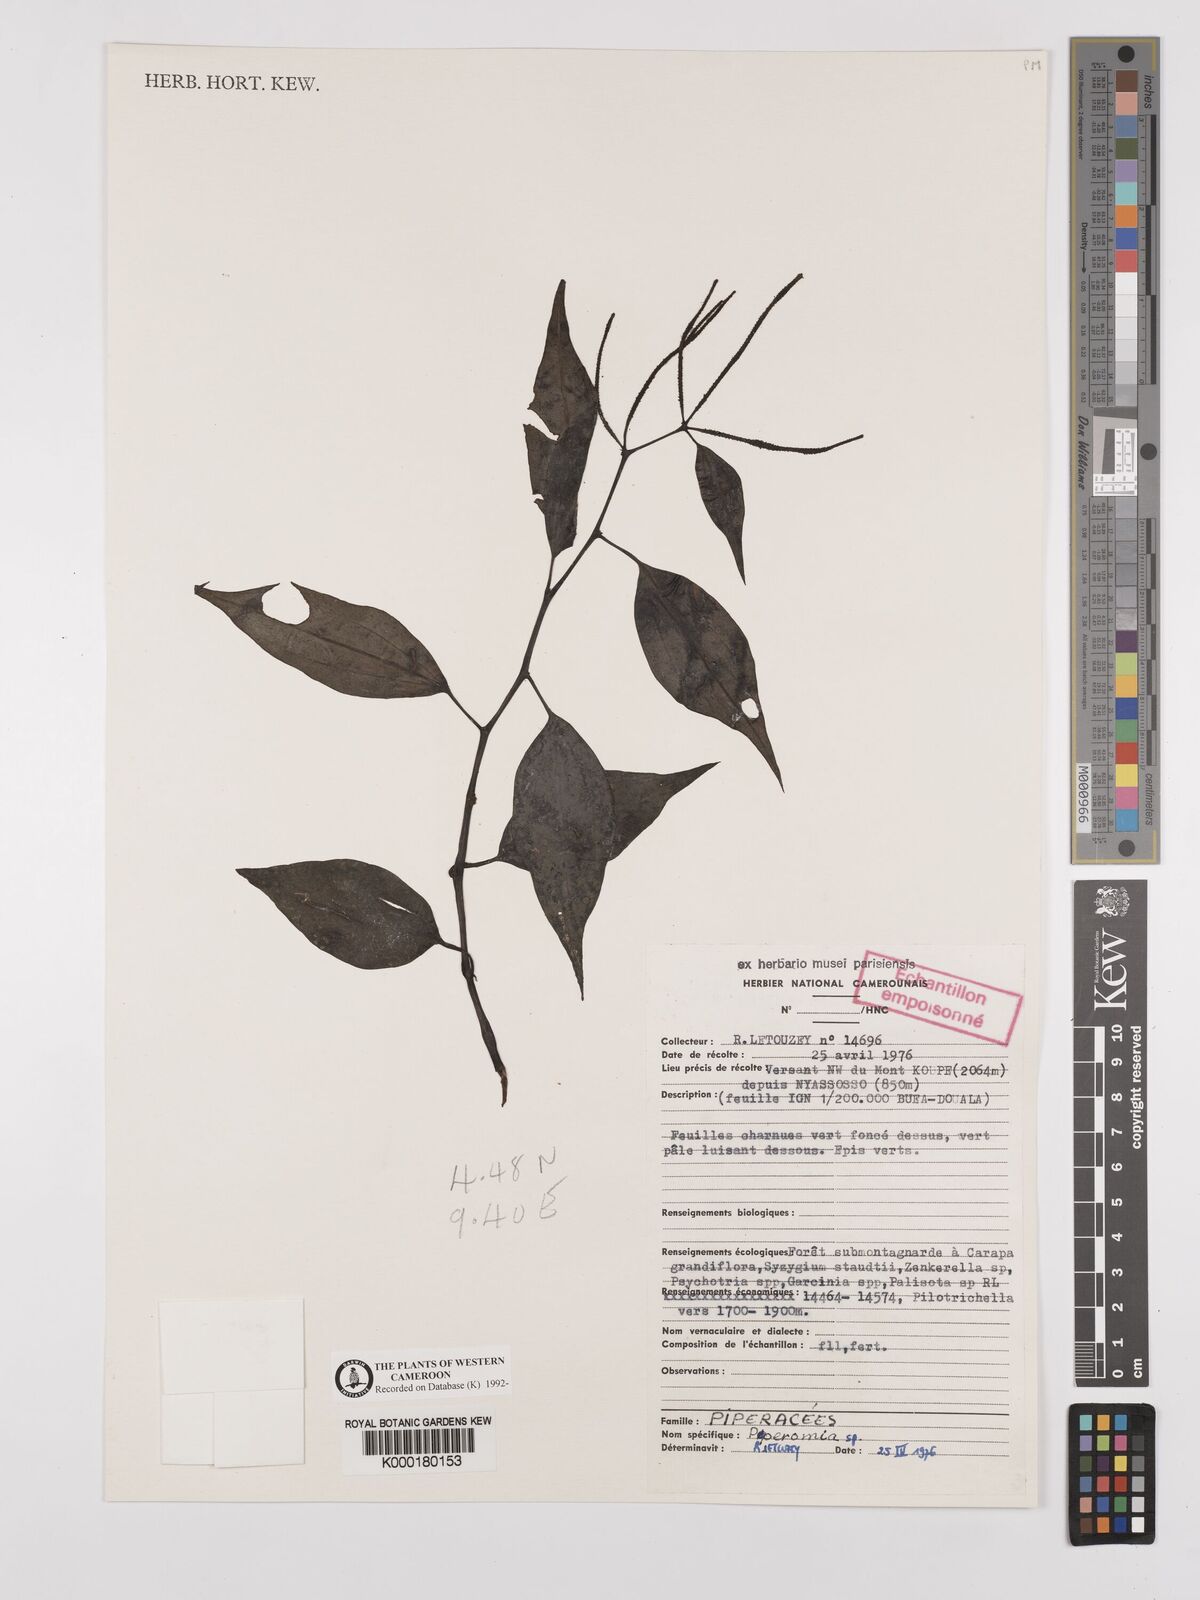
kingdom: Plantae
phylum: Tracheophyta
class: Magnoliopsida
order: Piperales
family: Piperaceae
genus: Peperomia
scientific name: Peperomia fernandopoiana
